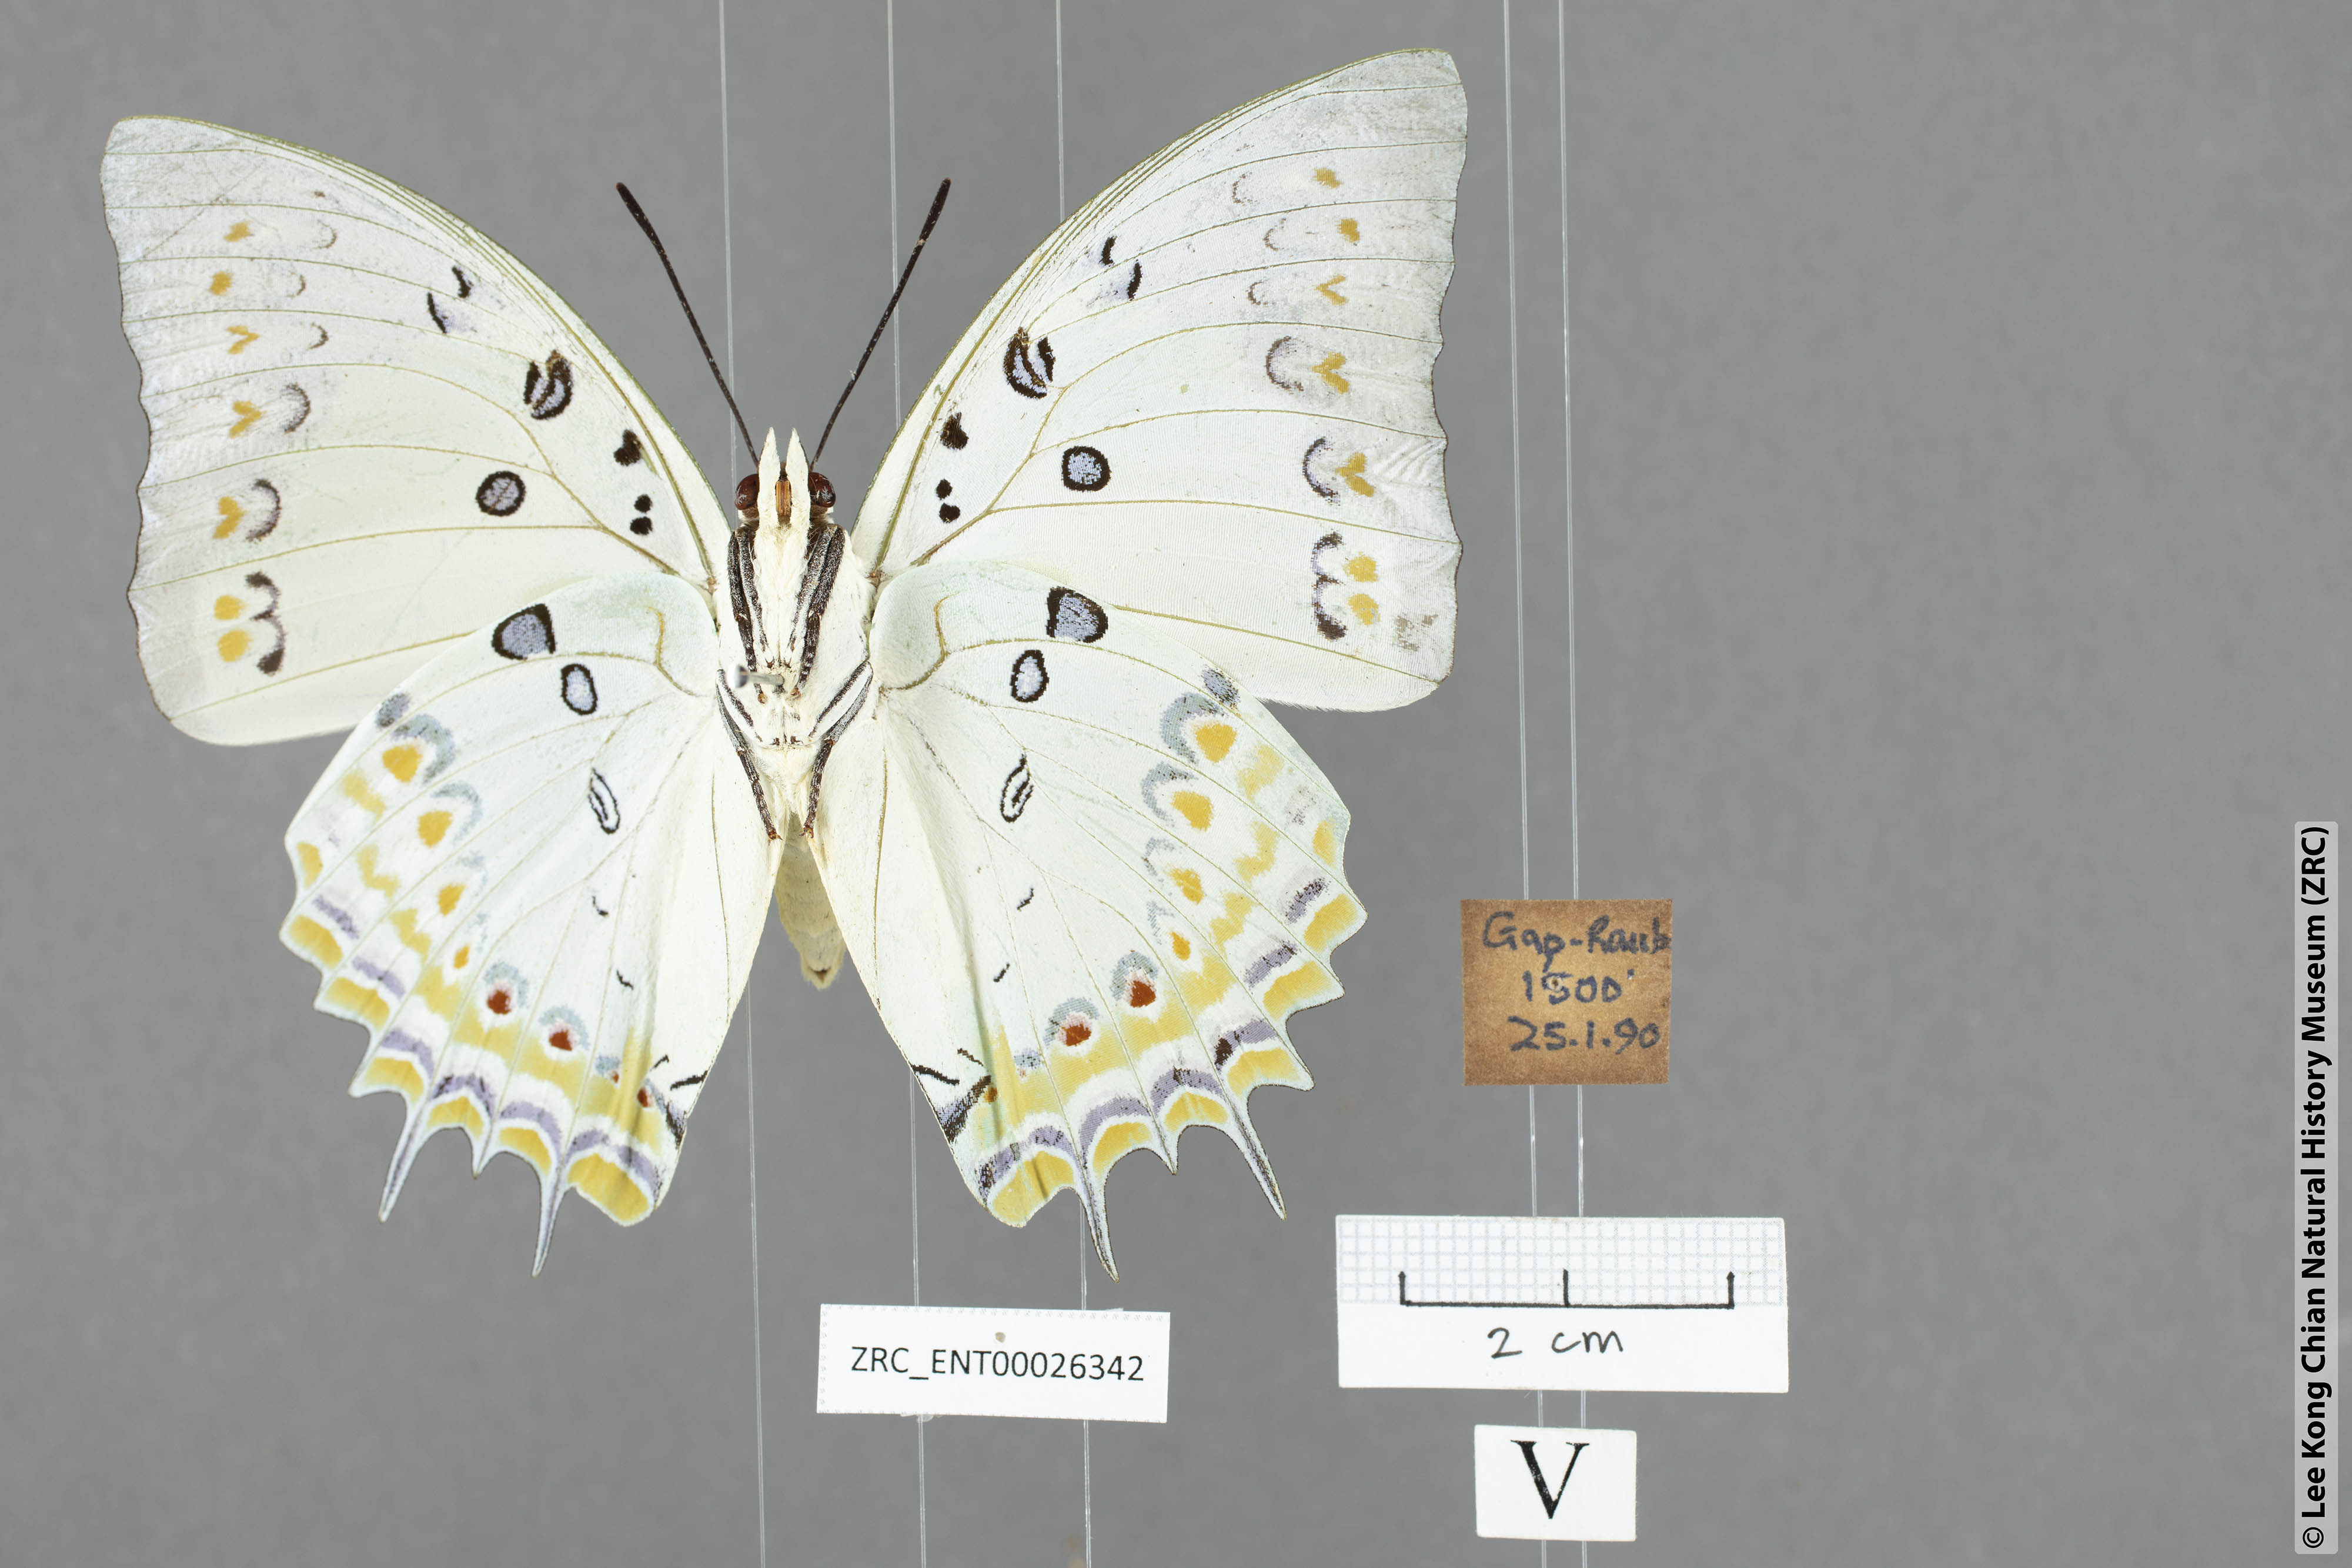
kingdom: Animalia
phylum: Arthropoda
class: Insecta
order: Lepidoptera
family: Nymphalidae
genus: Polyura
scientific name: Polyura delphis
